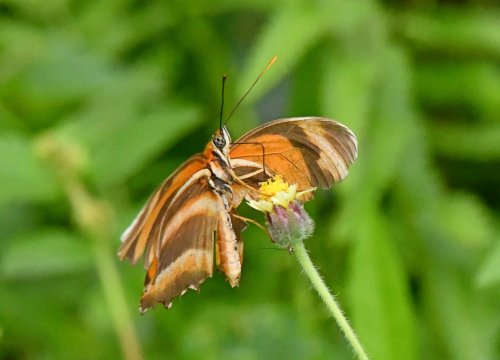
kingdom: Animalia
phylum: Arthropoda
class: Insecta
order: Lepidoptera
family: Nymphalidae
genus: Dryadula
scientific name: Dryadula phaetusa
